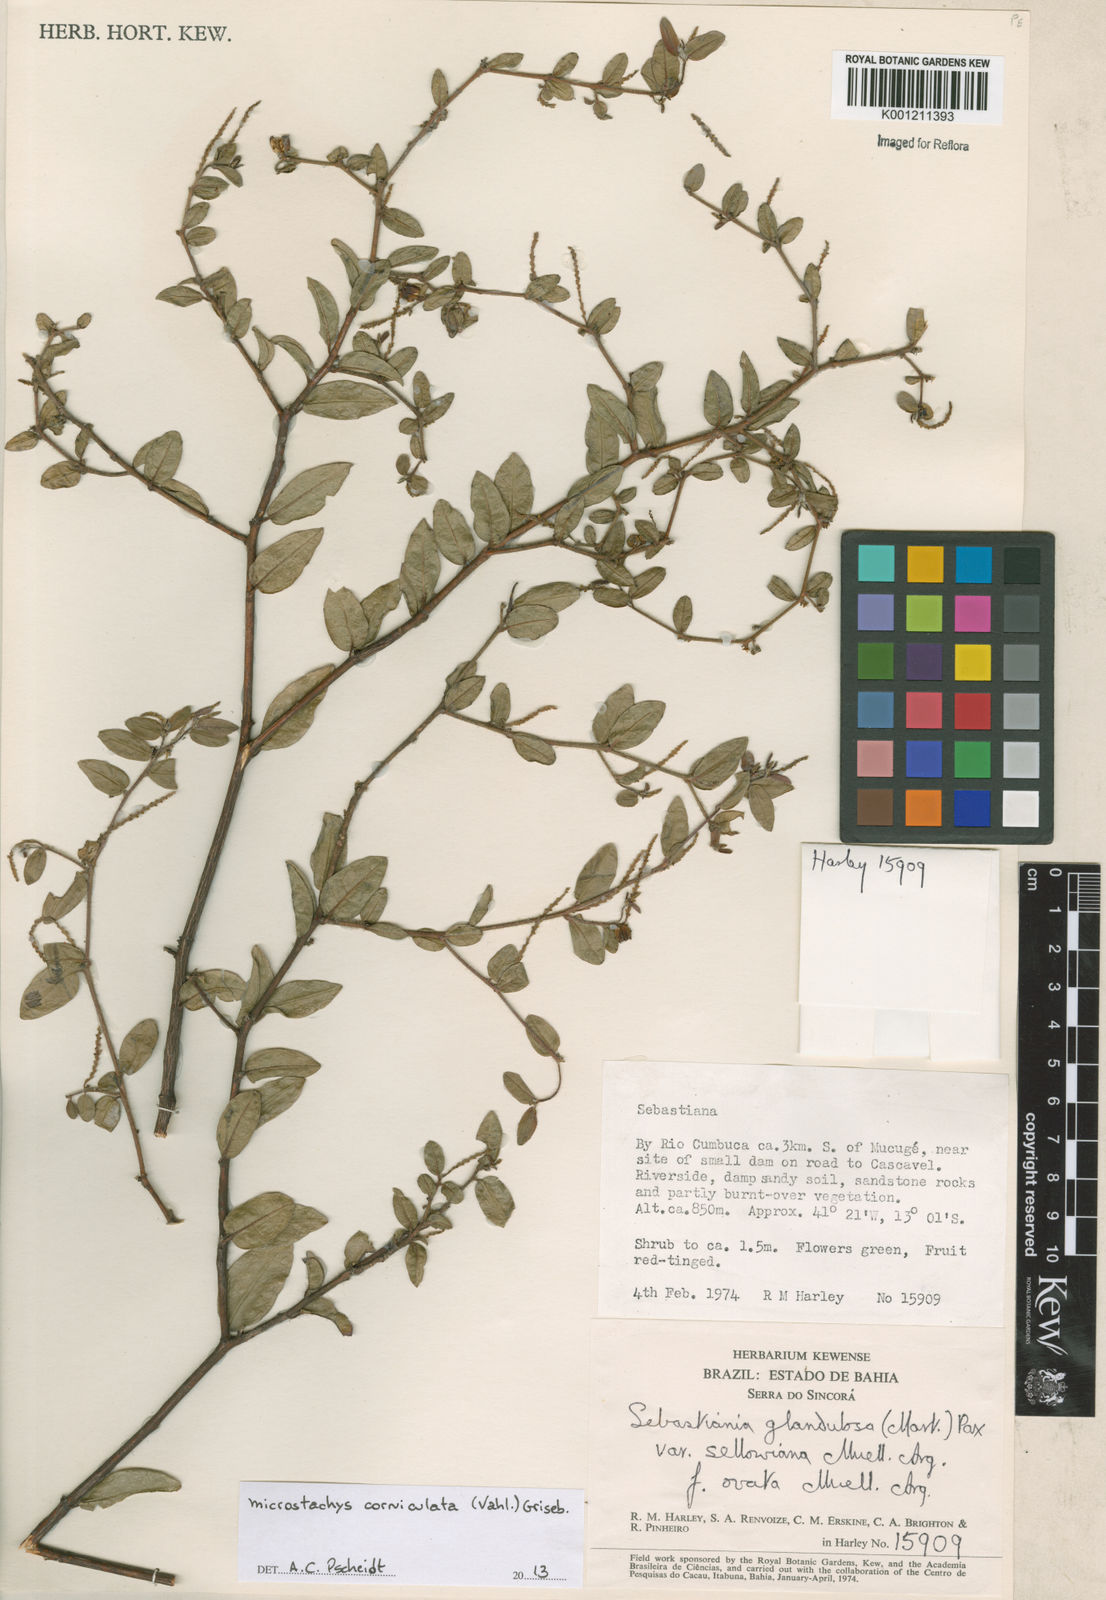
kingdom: Plantae
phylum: Tracheophyta
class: Magnoliopsida
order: Malpighiales
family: Euphorbiaceae
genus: Microstachys
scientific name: Microstachys corniculata
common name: Hato tejas
